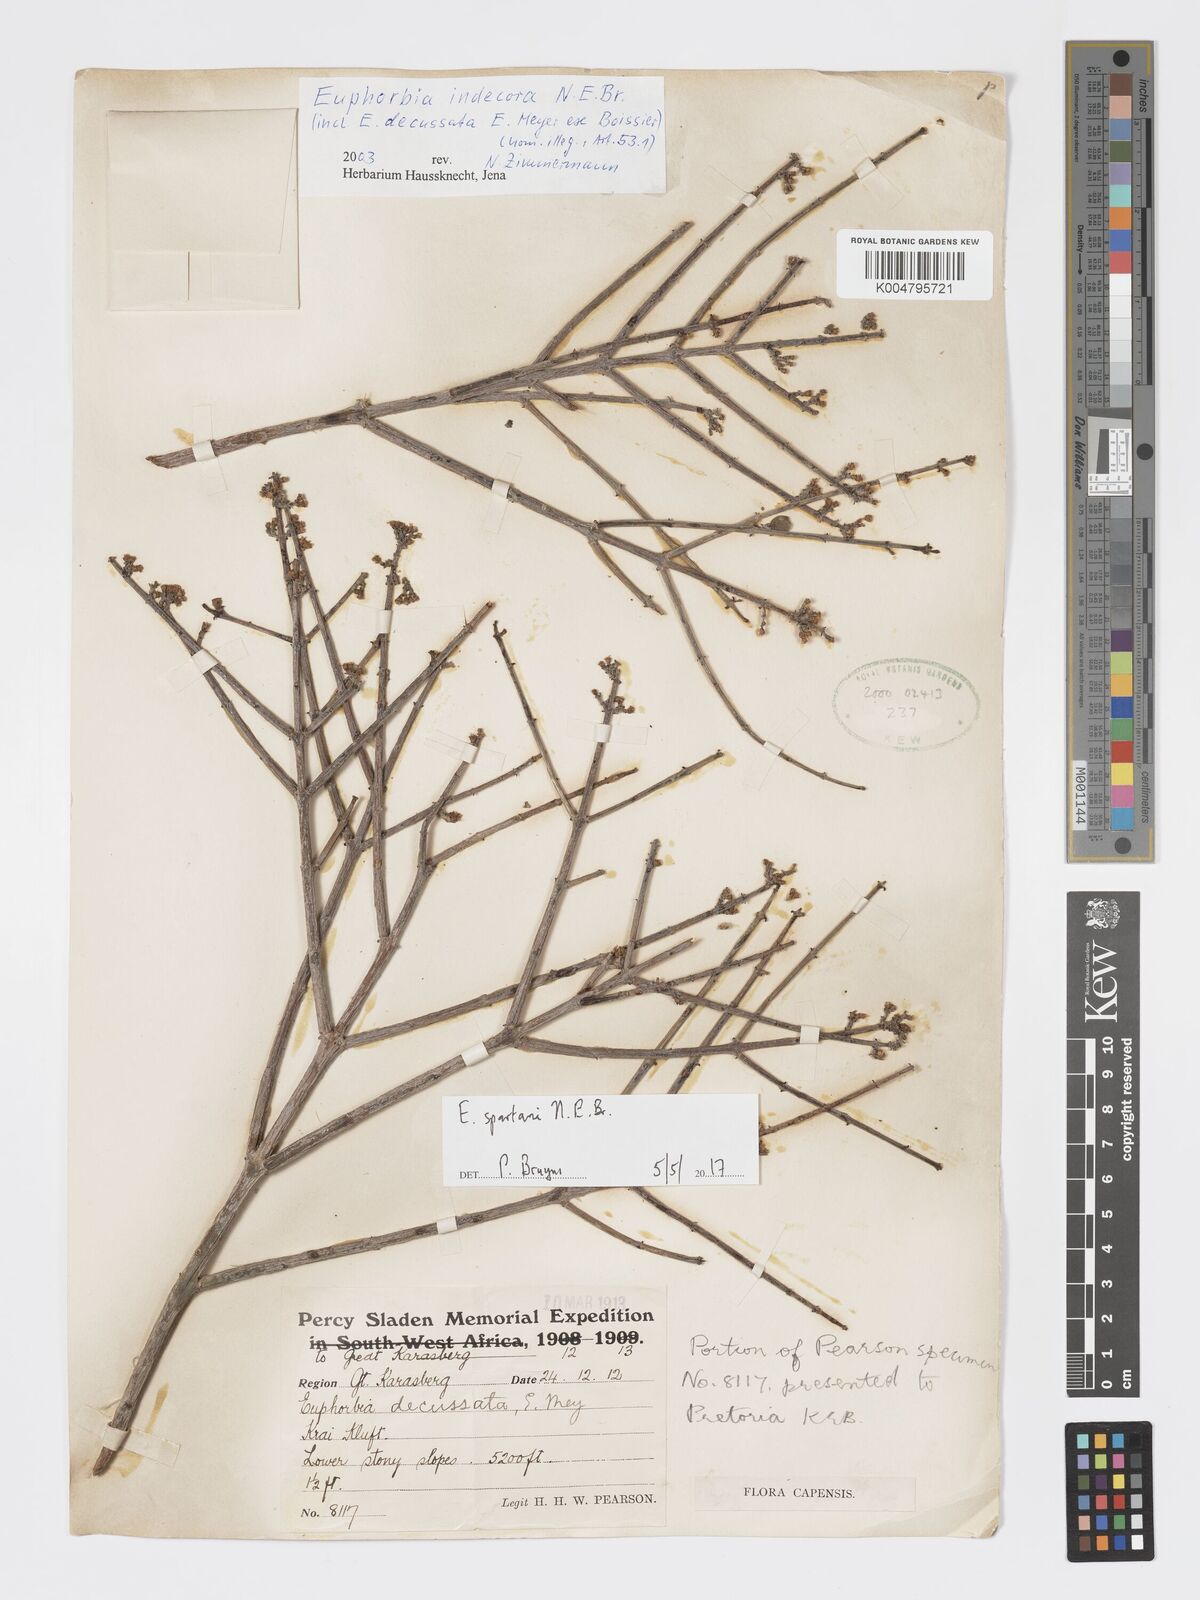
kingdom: Plantae
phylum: Tracheophyta
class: Magnoliopsida
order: Malpighiales
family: Euphorbiaceae
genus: Euphorbia
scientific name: Euphorbia spartaria
